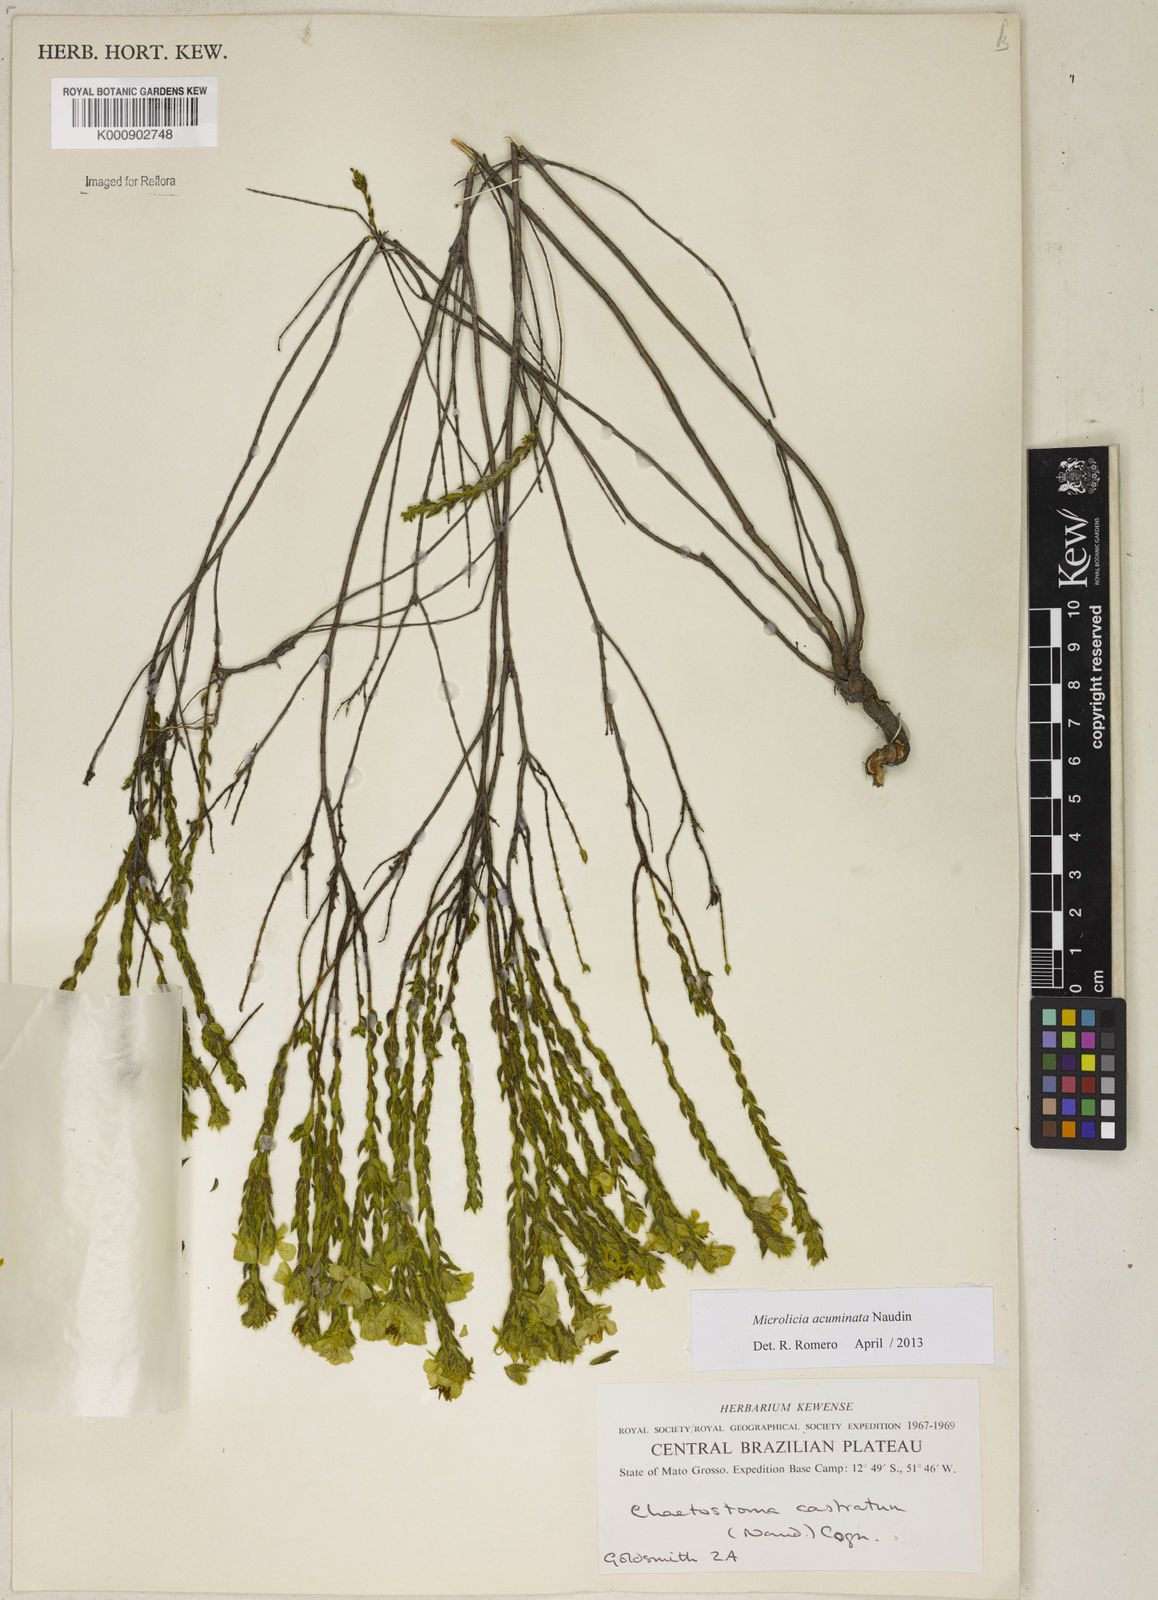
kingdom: Plantae
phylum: Tracheophyta
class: Magnoliopsida
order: Myrtales
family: Melastomataceae
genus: Microlicia
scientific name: Microlicia hirticalyx
